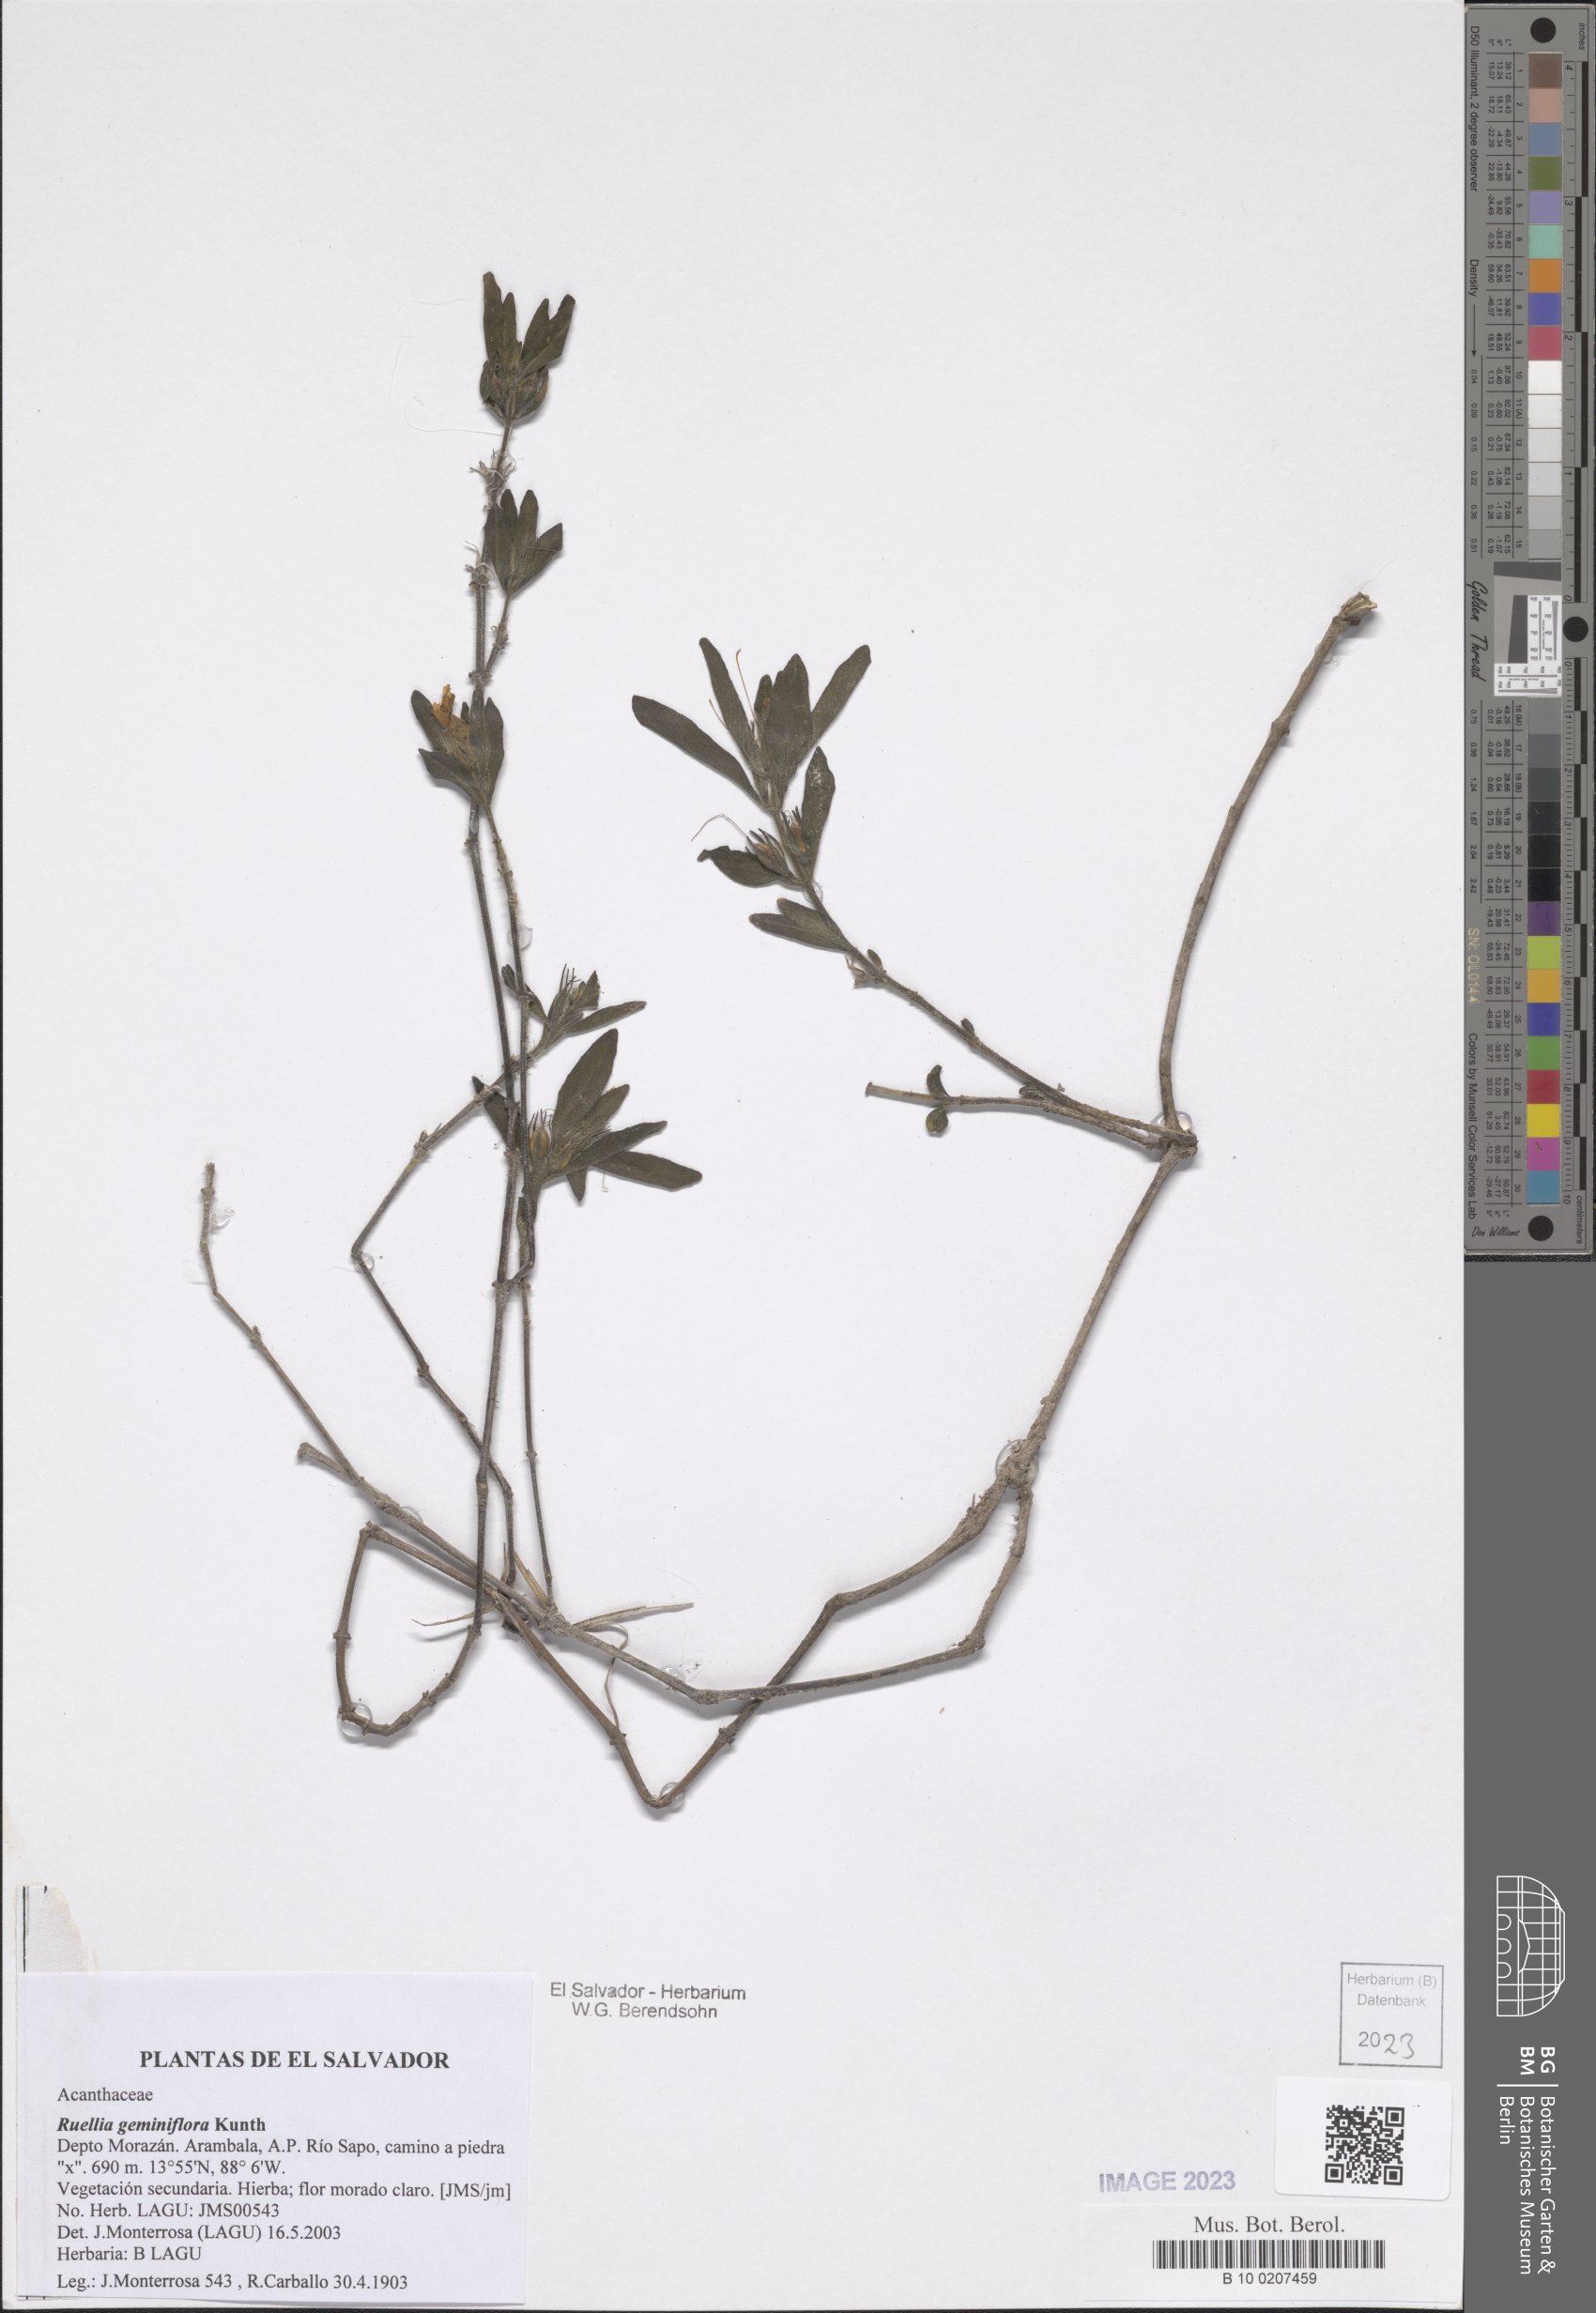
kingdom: Plantae
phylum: Tracheophyta
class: Magnoliopsida
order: Lamiales
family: Acanthaceae
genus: Ruellia
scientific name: Ruellia geminiflora
